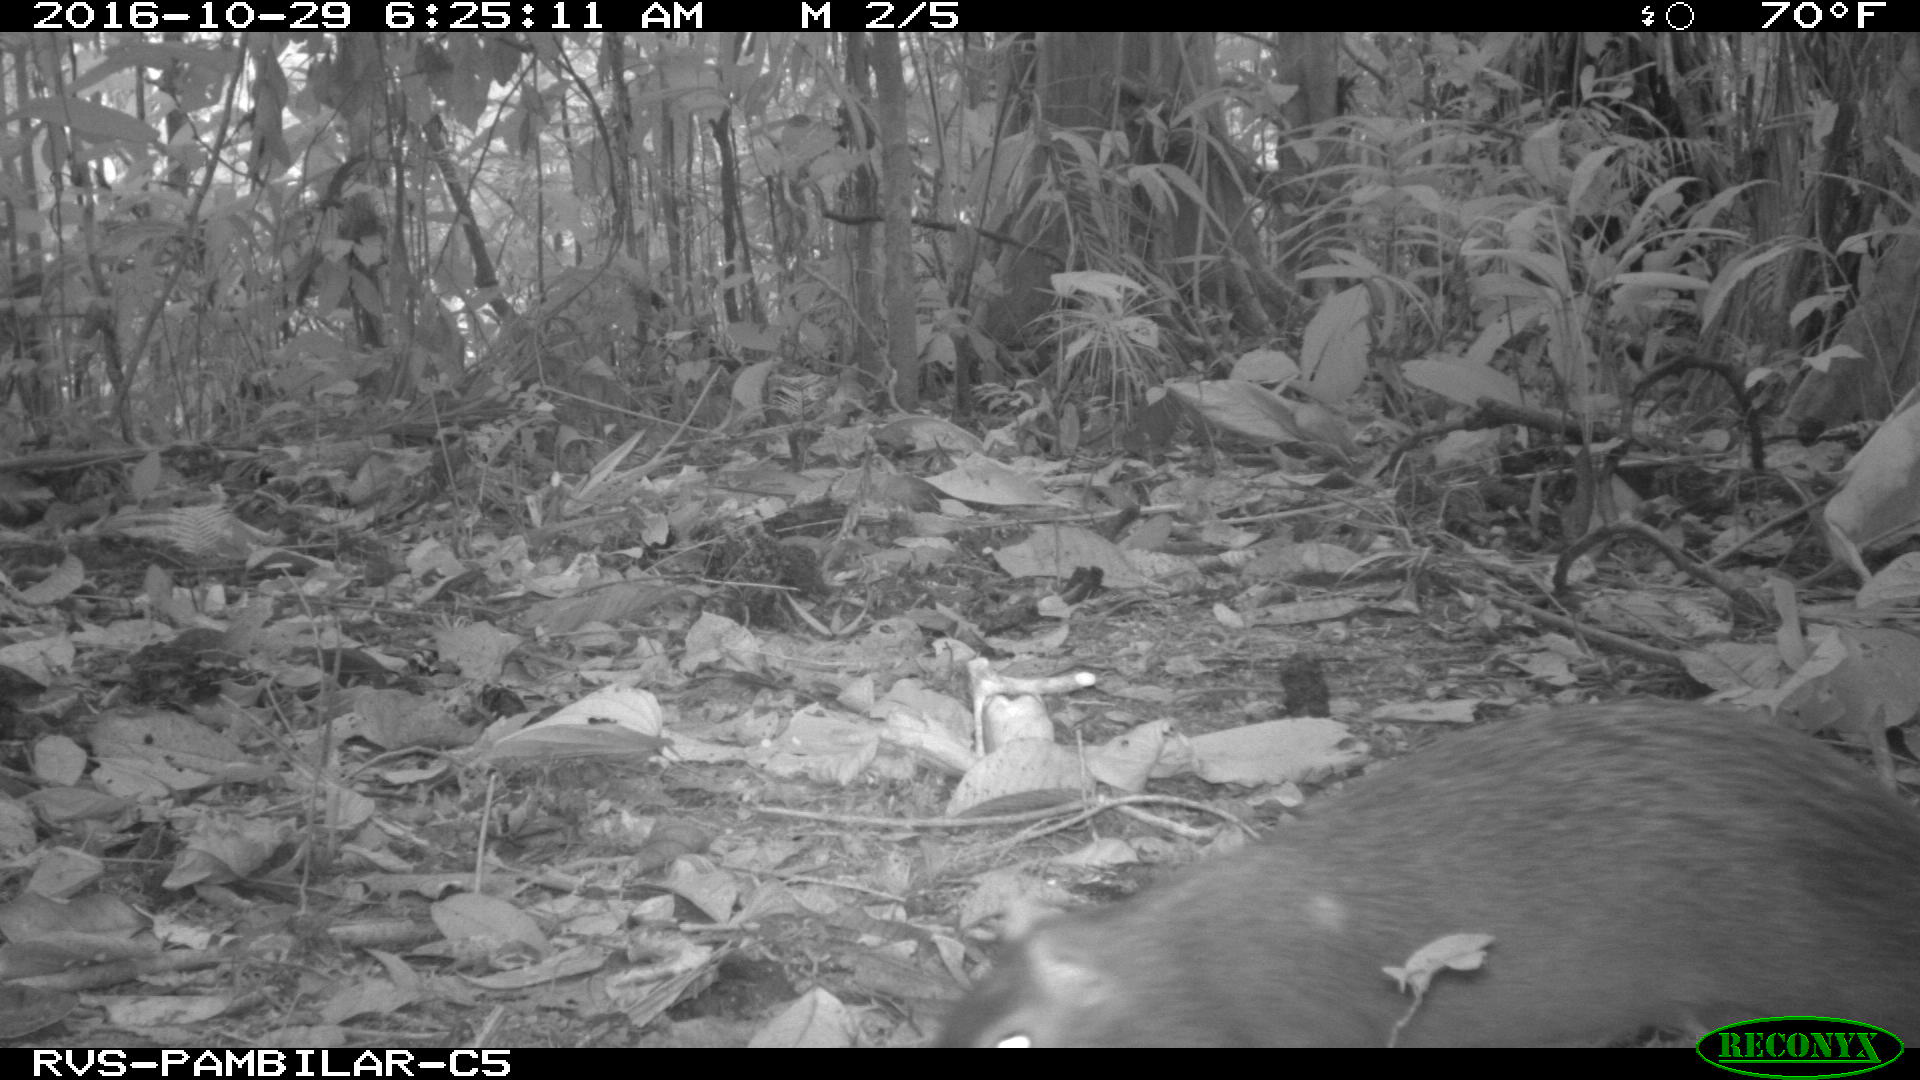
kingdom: Animalia
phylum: Chordata
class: Mammalia
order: Rodentia
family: Dasyproctidae
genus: Dasyprocta
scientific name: Dasyprocta punctata
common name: Central american agouti
